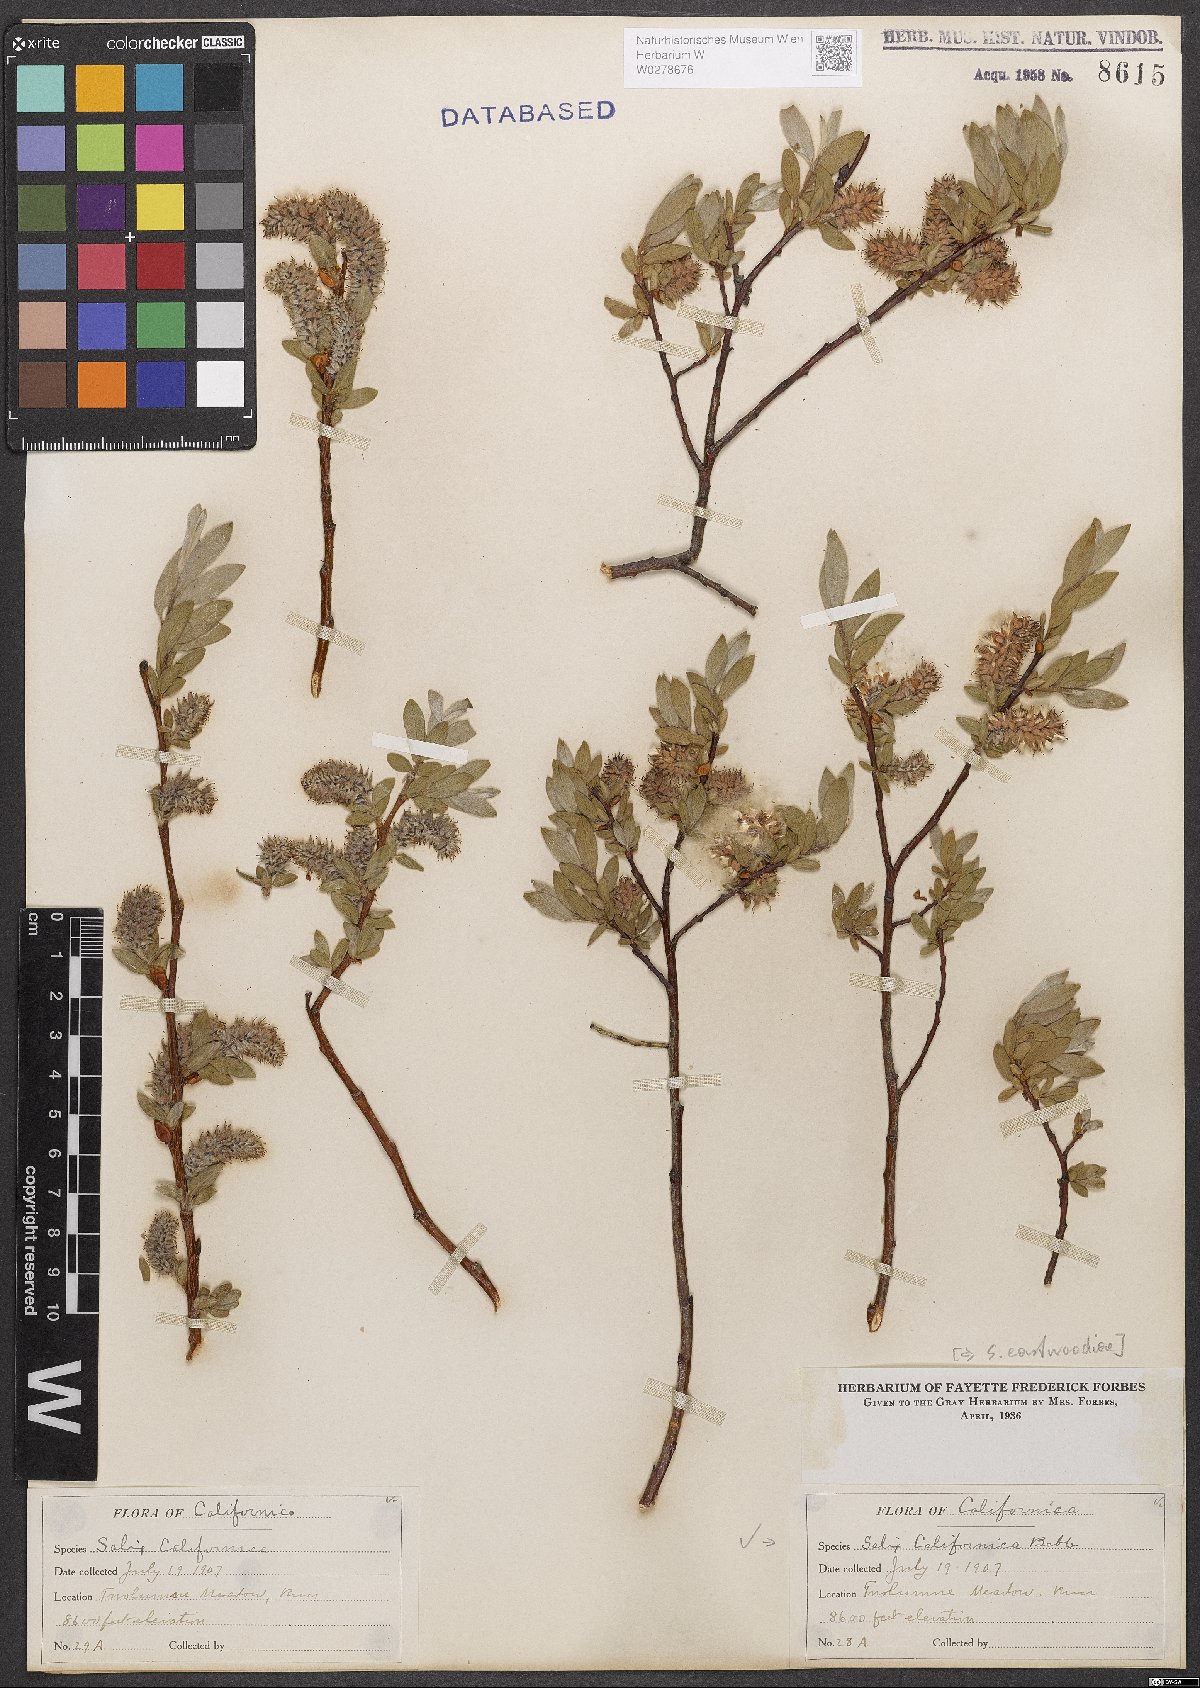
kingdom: Plantae
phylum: Tracheophyta
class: Magnoliopsida
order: Malpighiales
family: Salicaceae
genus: Salix
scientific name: Salix eastwoodiae
